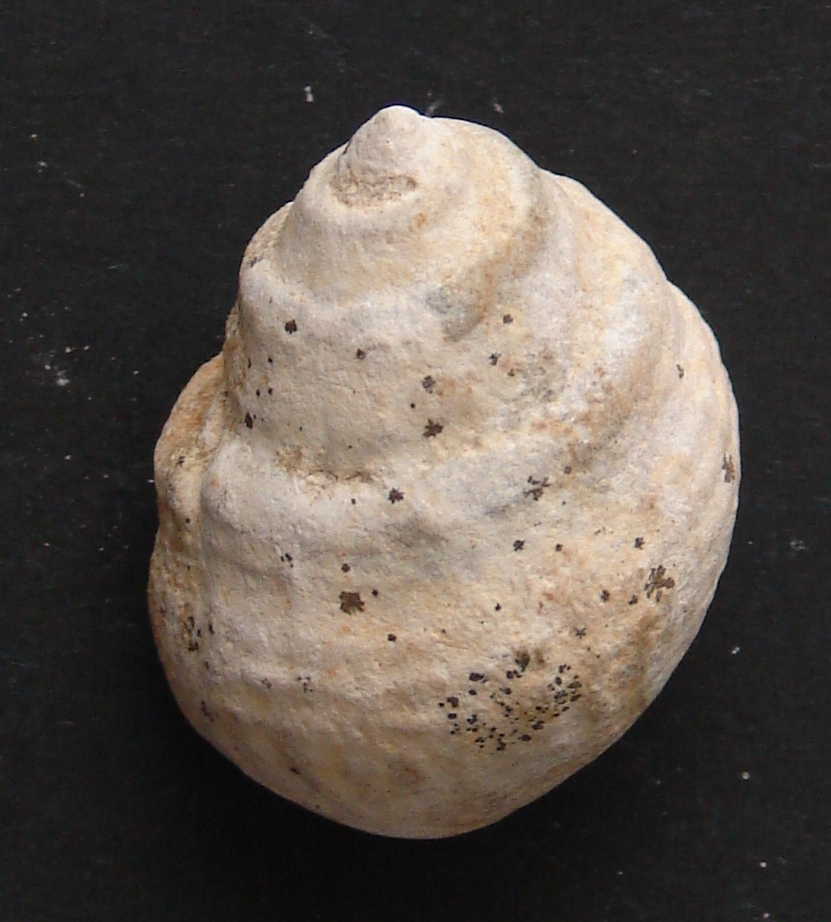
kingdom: Animalia
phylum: Mollusca
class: Gastropoda
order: Neogastropoda
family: Purpurinidae
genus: Microschiza
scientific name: Microschiza Turbo semiornatus
